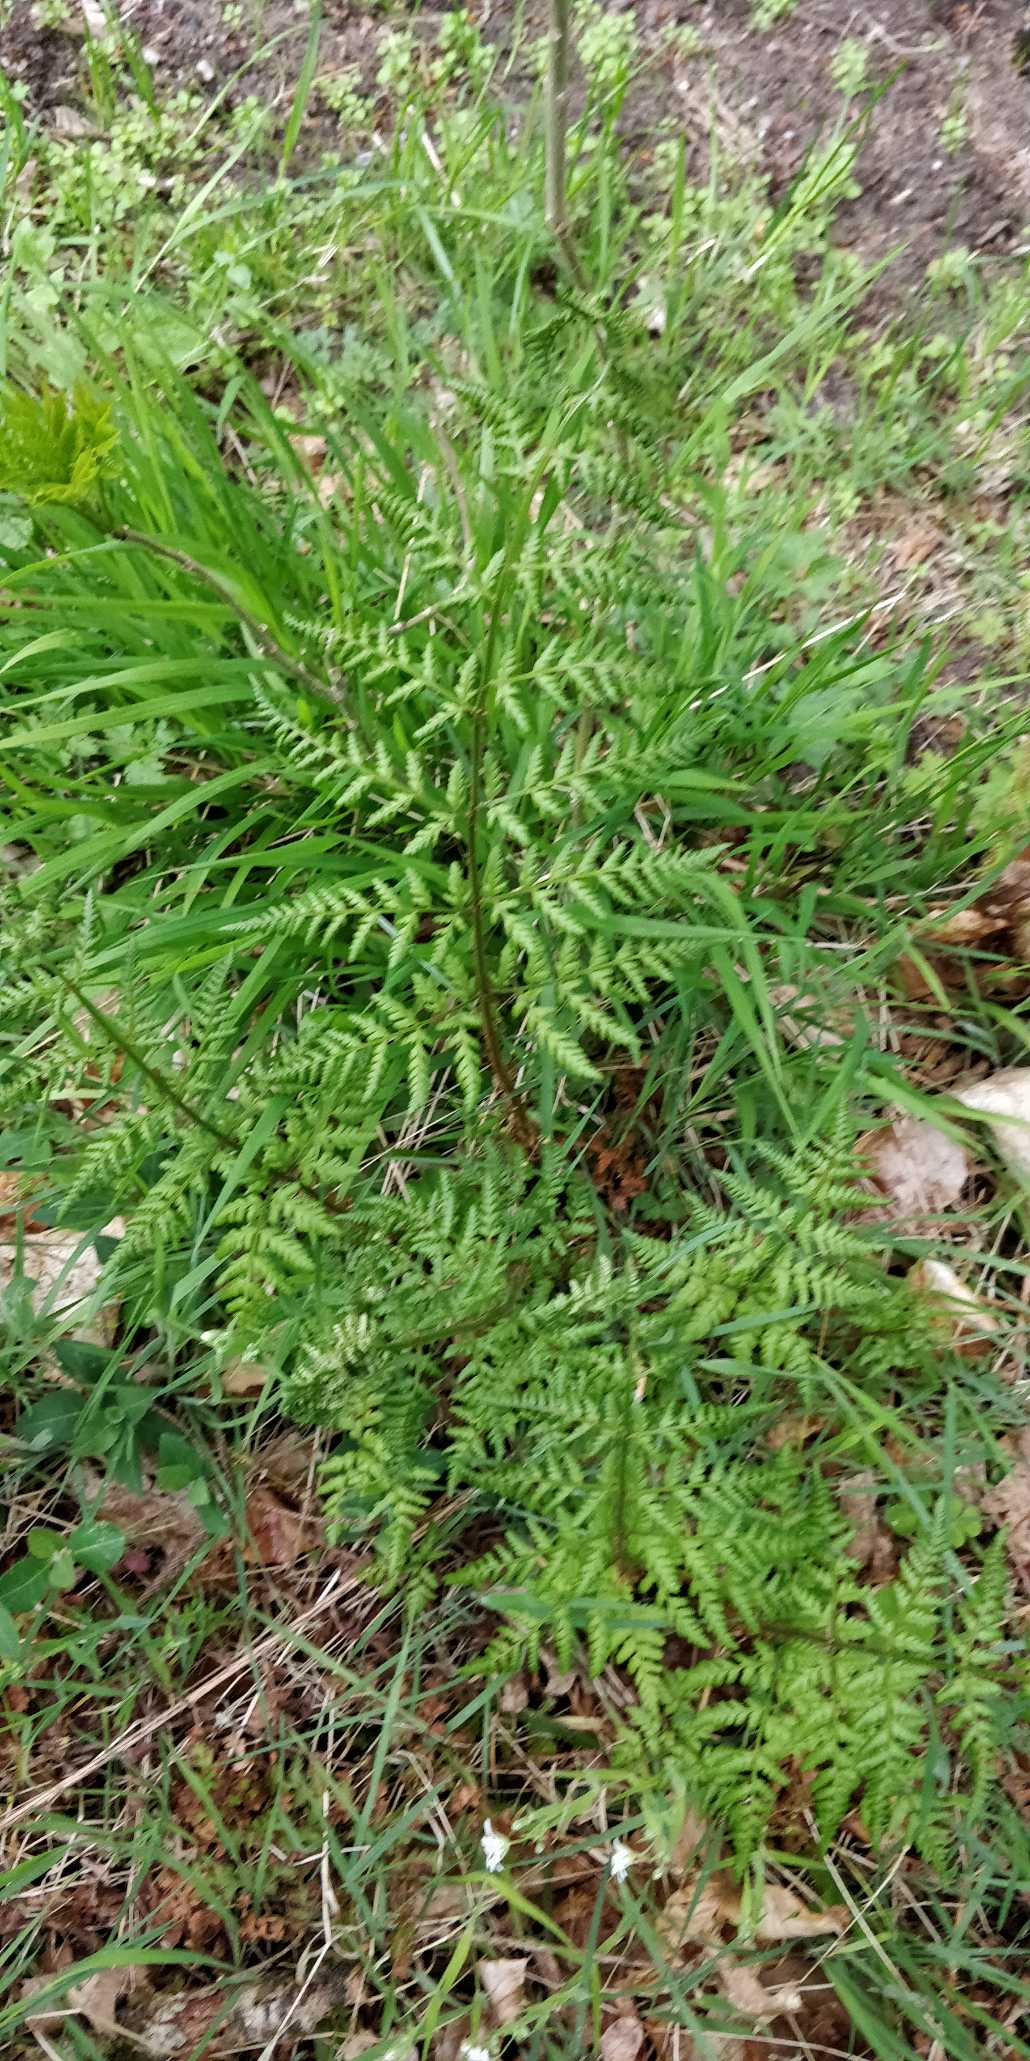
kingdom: Plantae
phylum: Tracheophyta
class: Polypodiopsida
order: Polypodiales
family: Dryopteridaceae
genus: Dryopteris
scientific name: Dryopteris dilatata
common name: Bredbladet mangeløv
